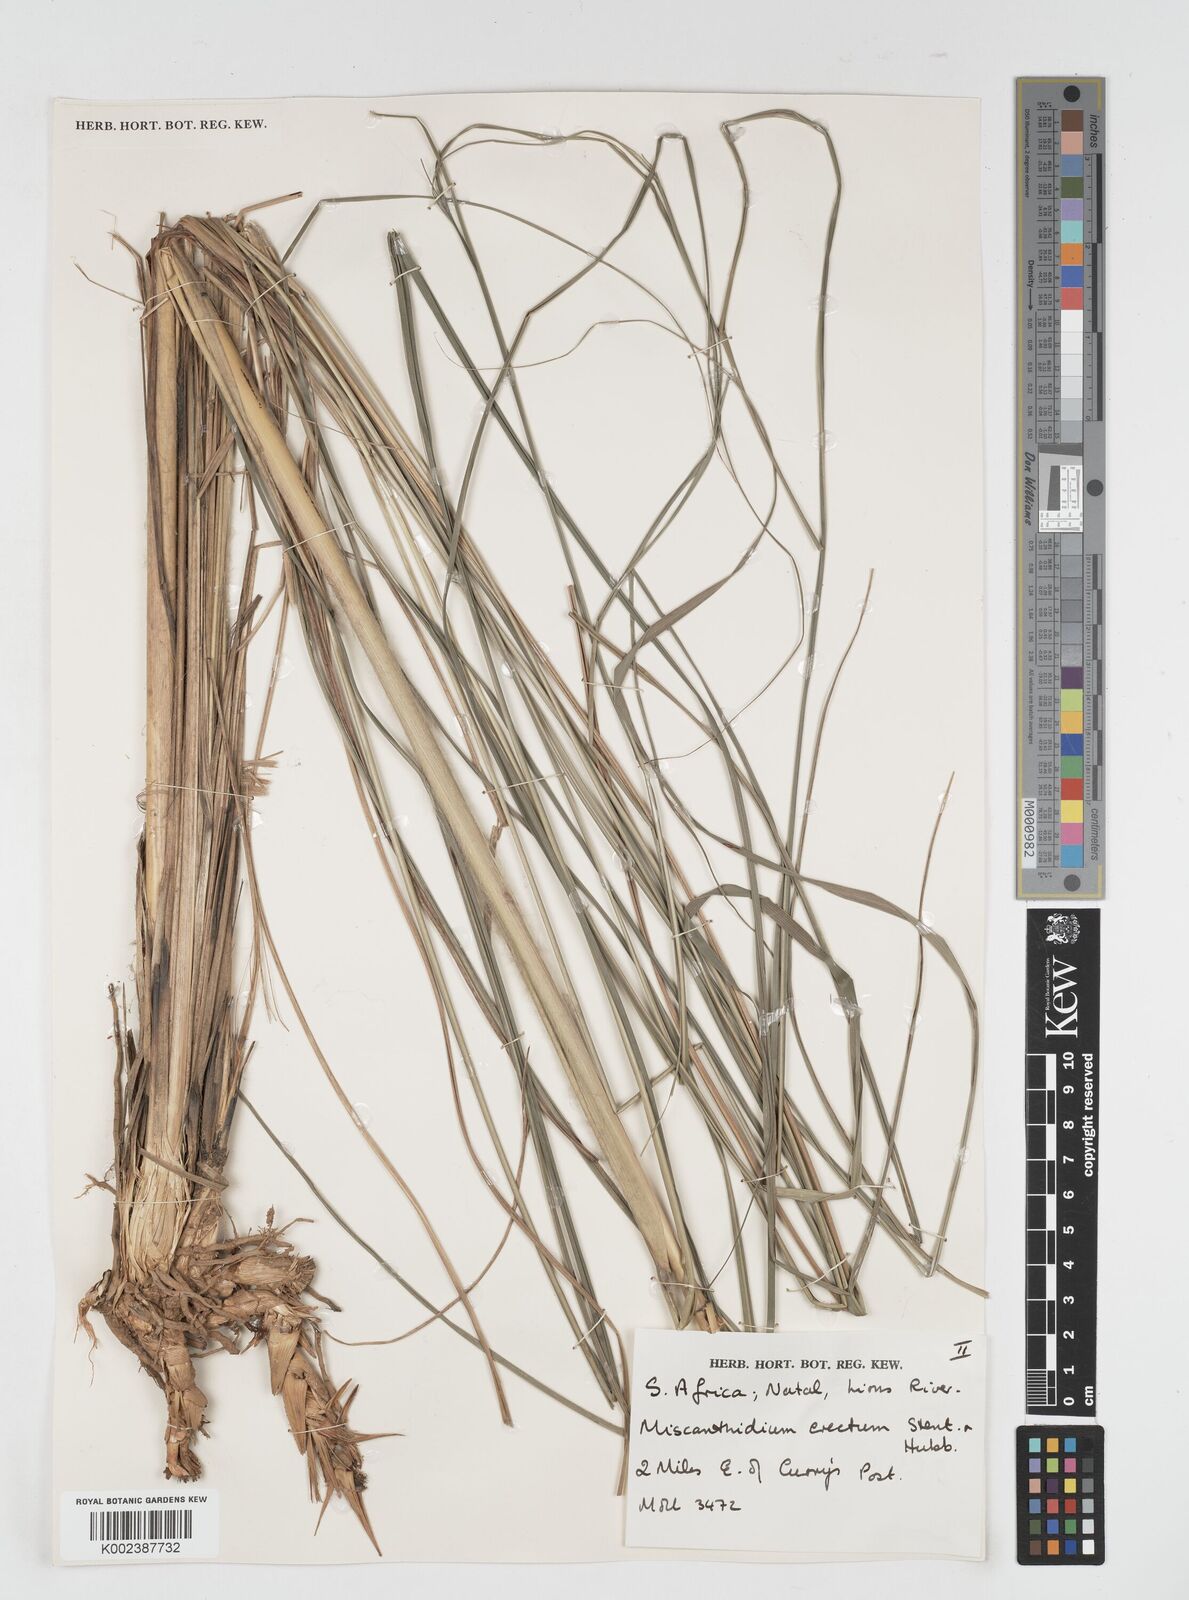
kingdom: Plantae
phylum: Tracheophyta
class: Liliopsida
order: Poales
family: Poaceae
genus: Miscanthus
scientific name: Miscanthus ecklonii
